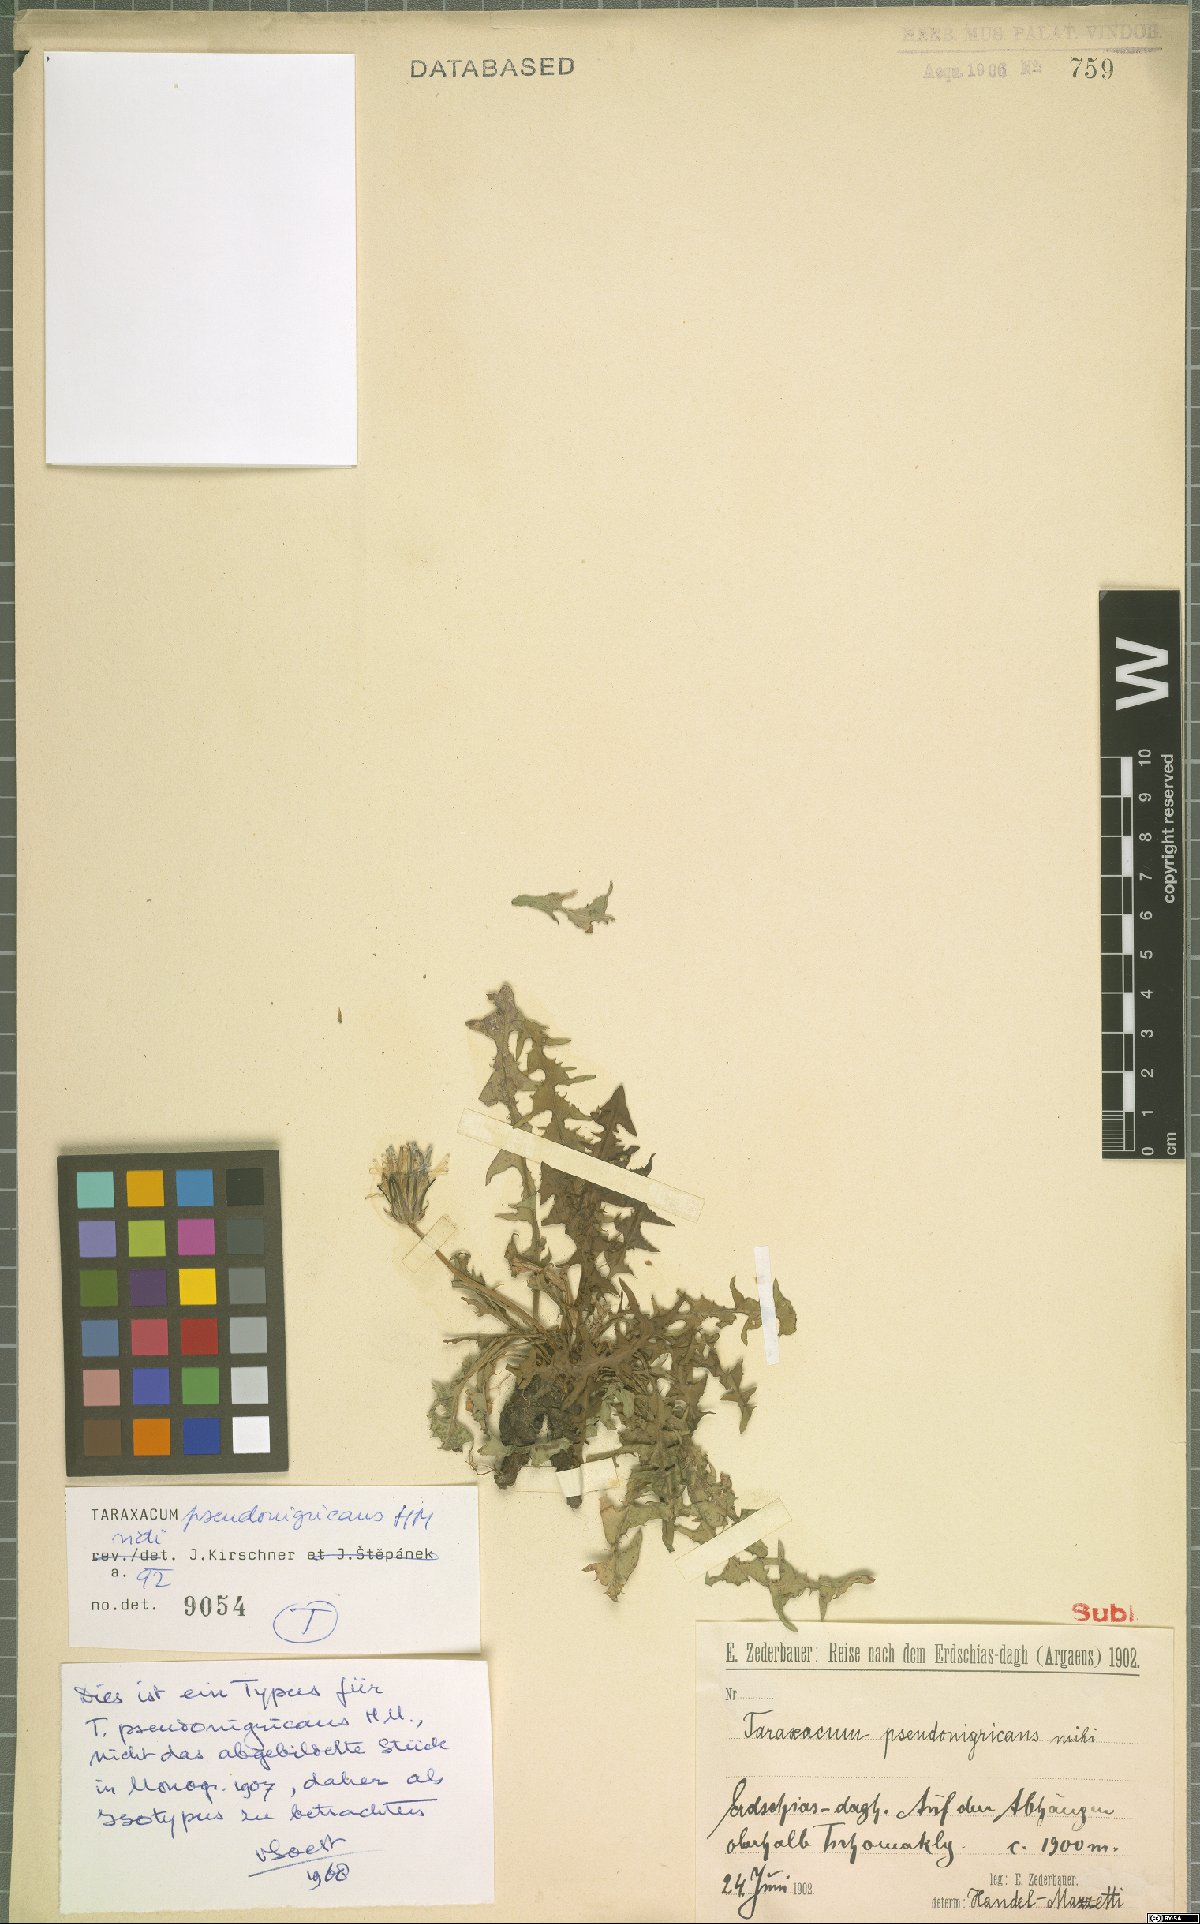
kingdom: Plantae
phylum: Tracheophyta
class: Magnoliopsida
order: Asterales
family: Asteraceae
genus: Taraxacum
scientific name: Taraxacum pseudonigricans
